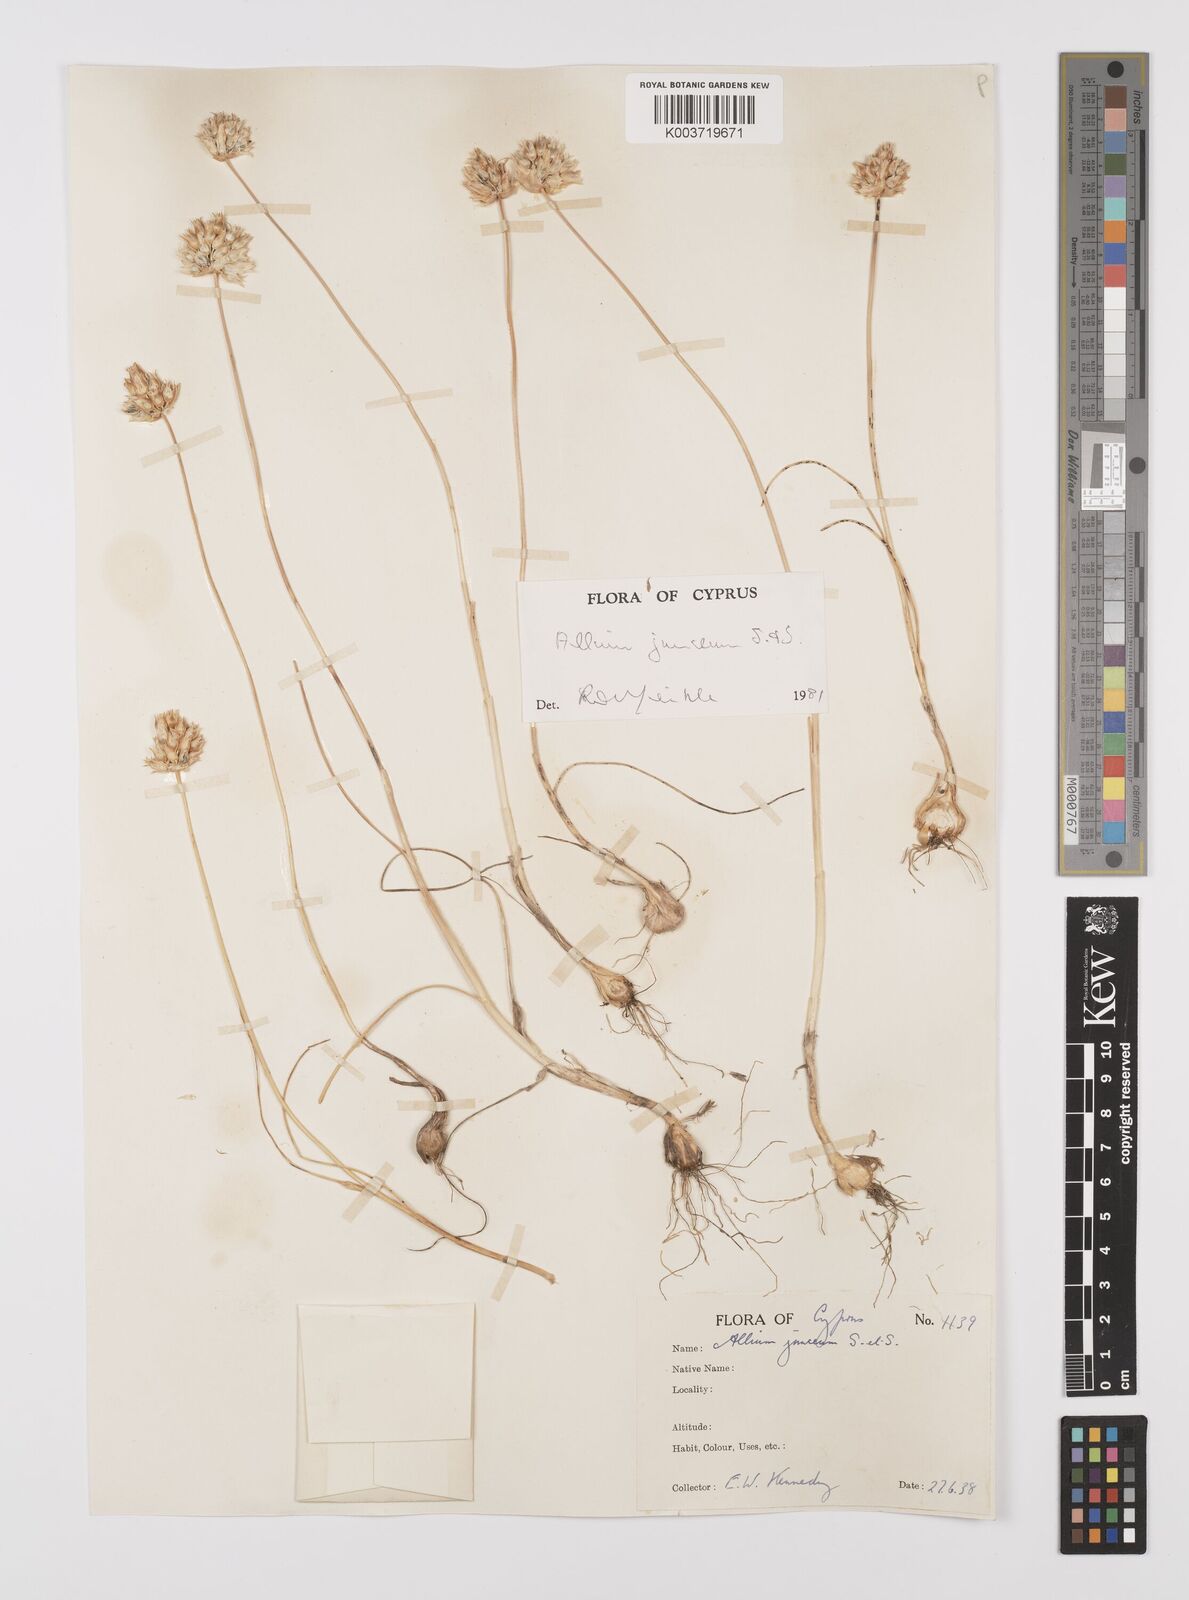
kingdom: Plantae
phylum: Tracheophyta
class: Liliopsida
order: Asparagales
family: Amaryllidaceae
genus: Allium
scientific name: Allium junceum
